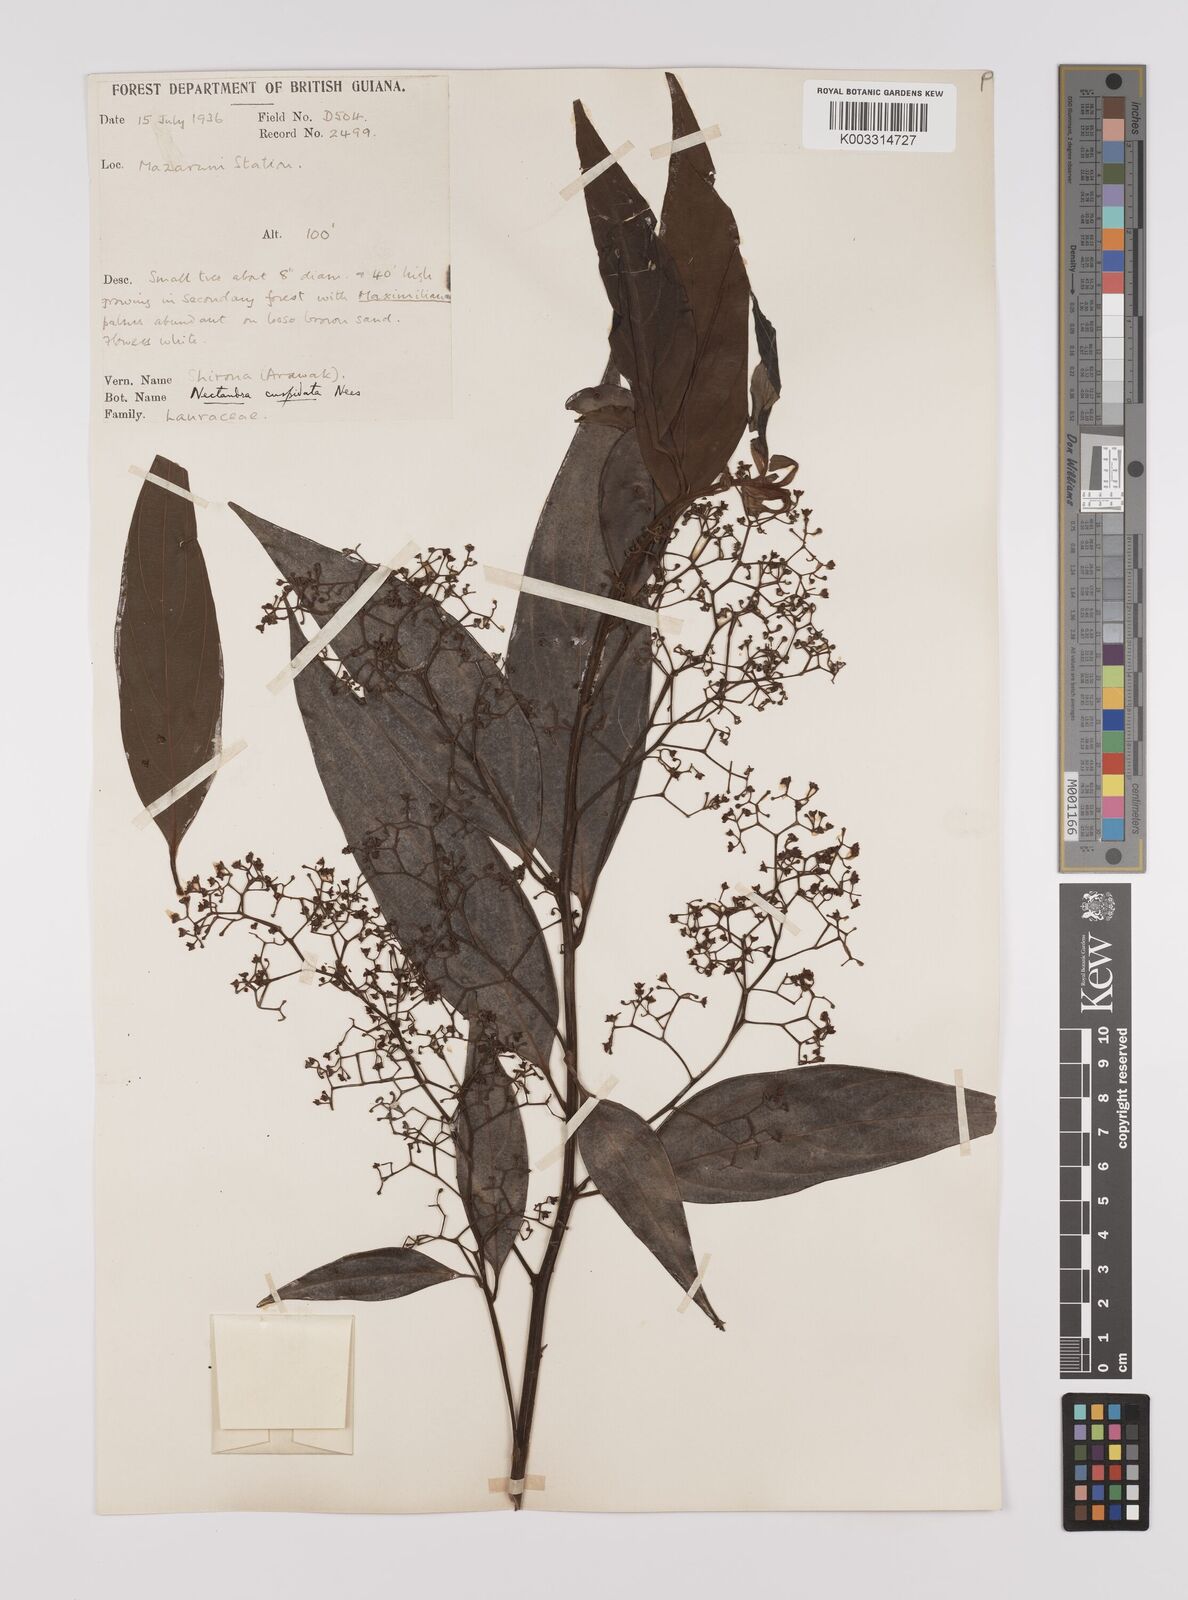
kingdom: Plantae
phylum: Tracheophyta
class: Magnoliopsida
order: Laurales
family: Lauraceae
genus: Nectandra
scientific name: Nectandra cuspidata
